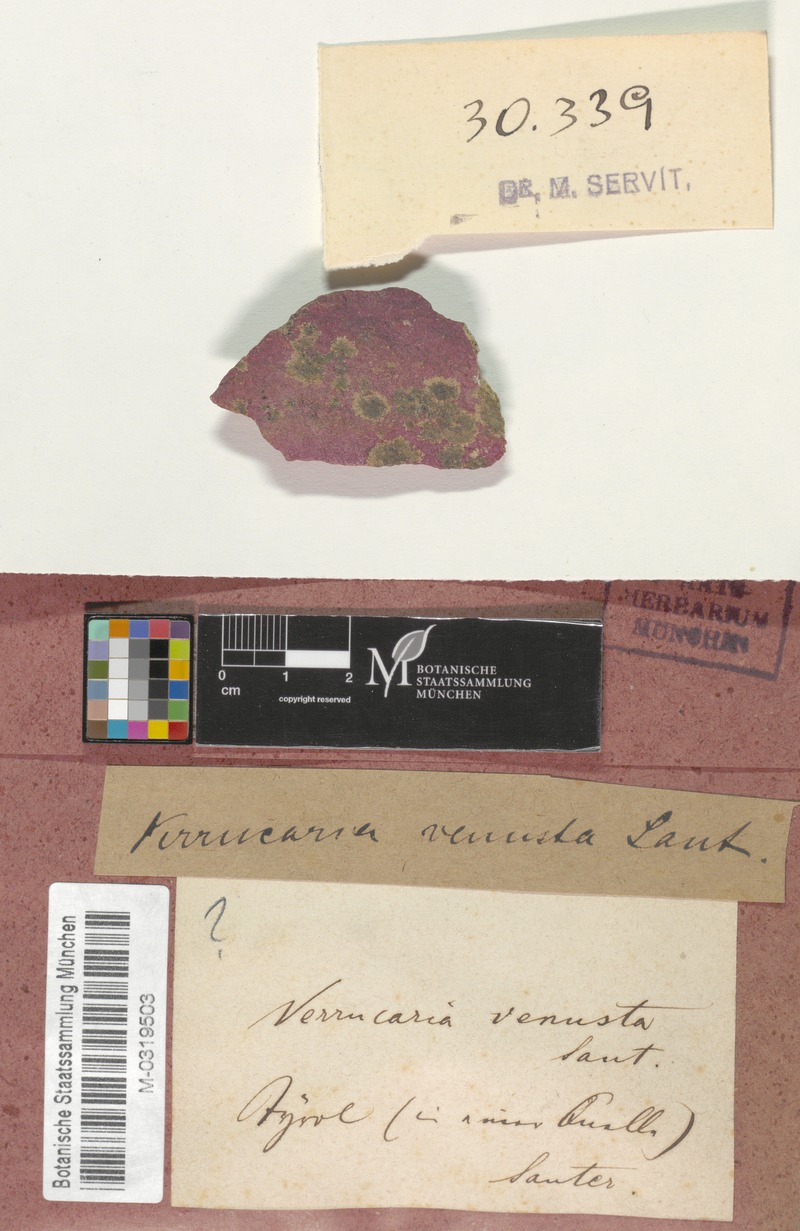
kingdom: Fungi
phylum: Ascomycota
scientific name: Ascomycota
